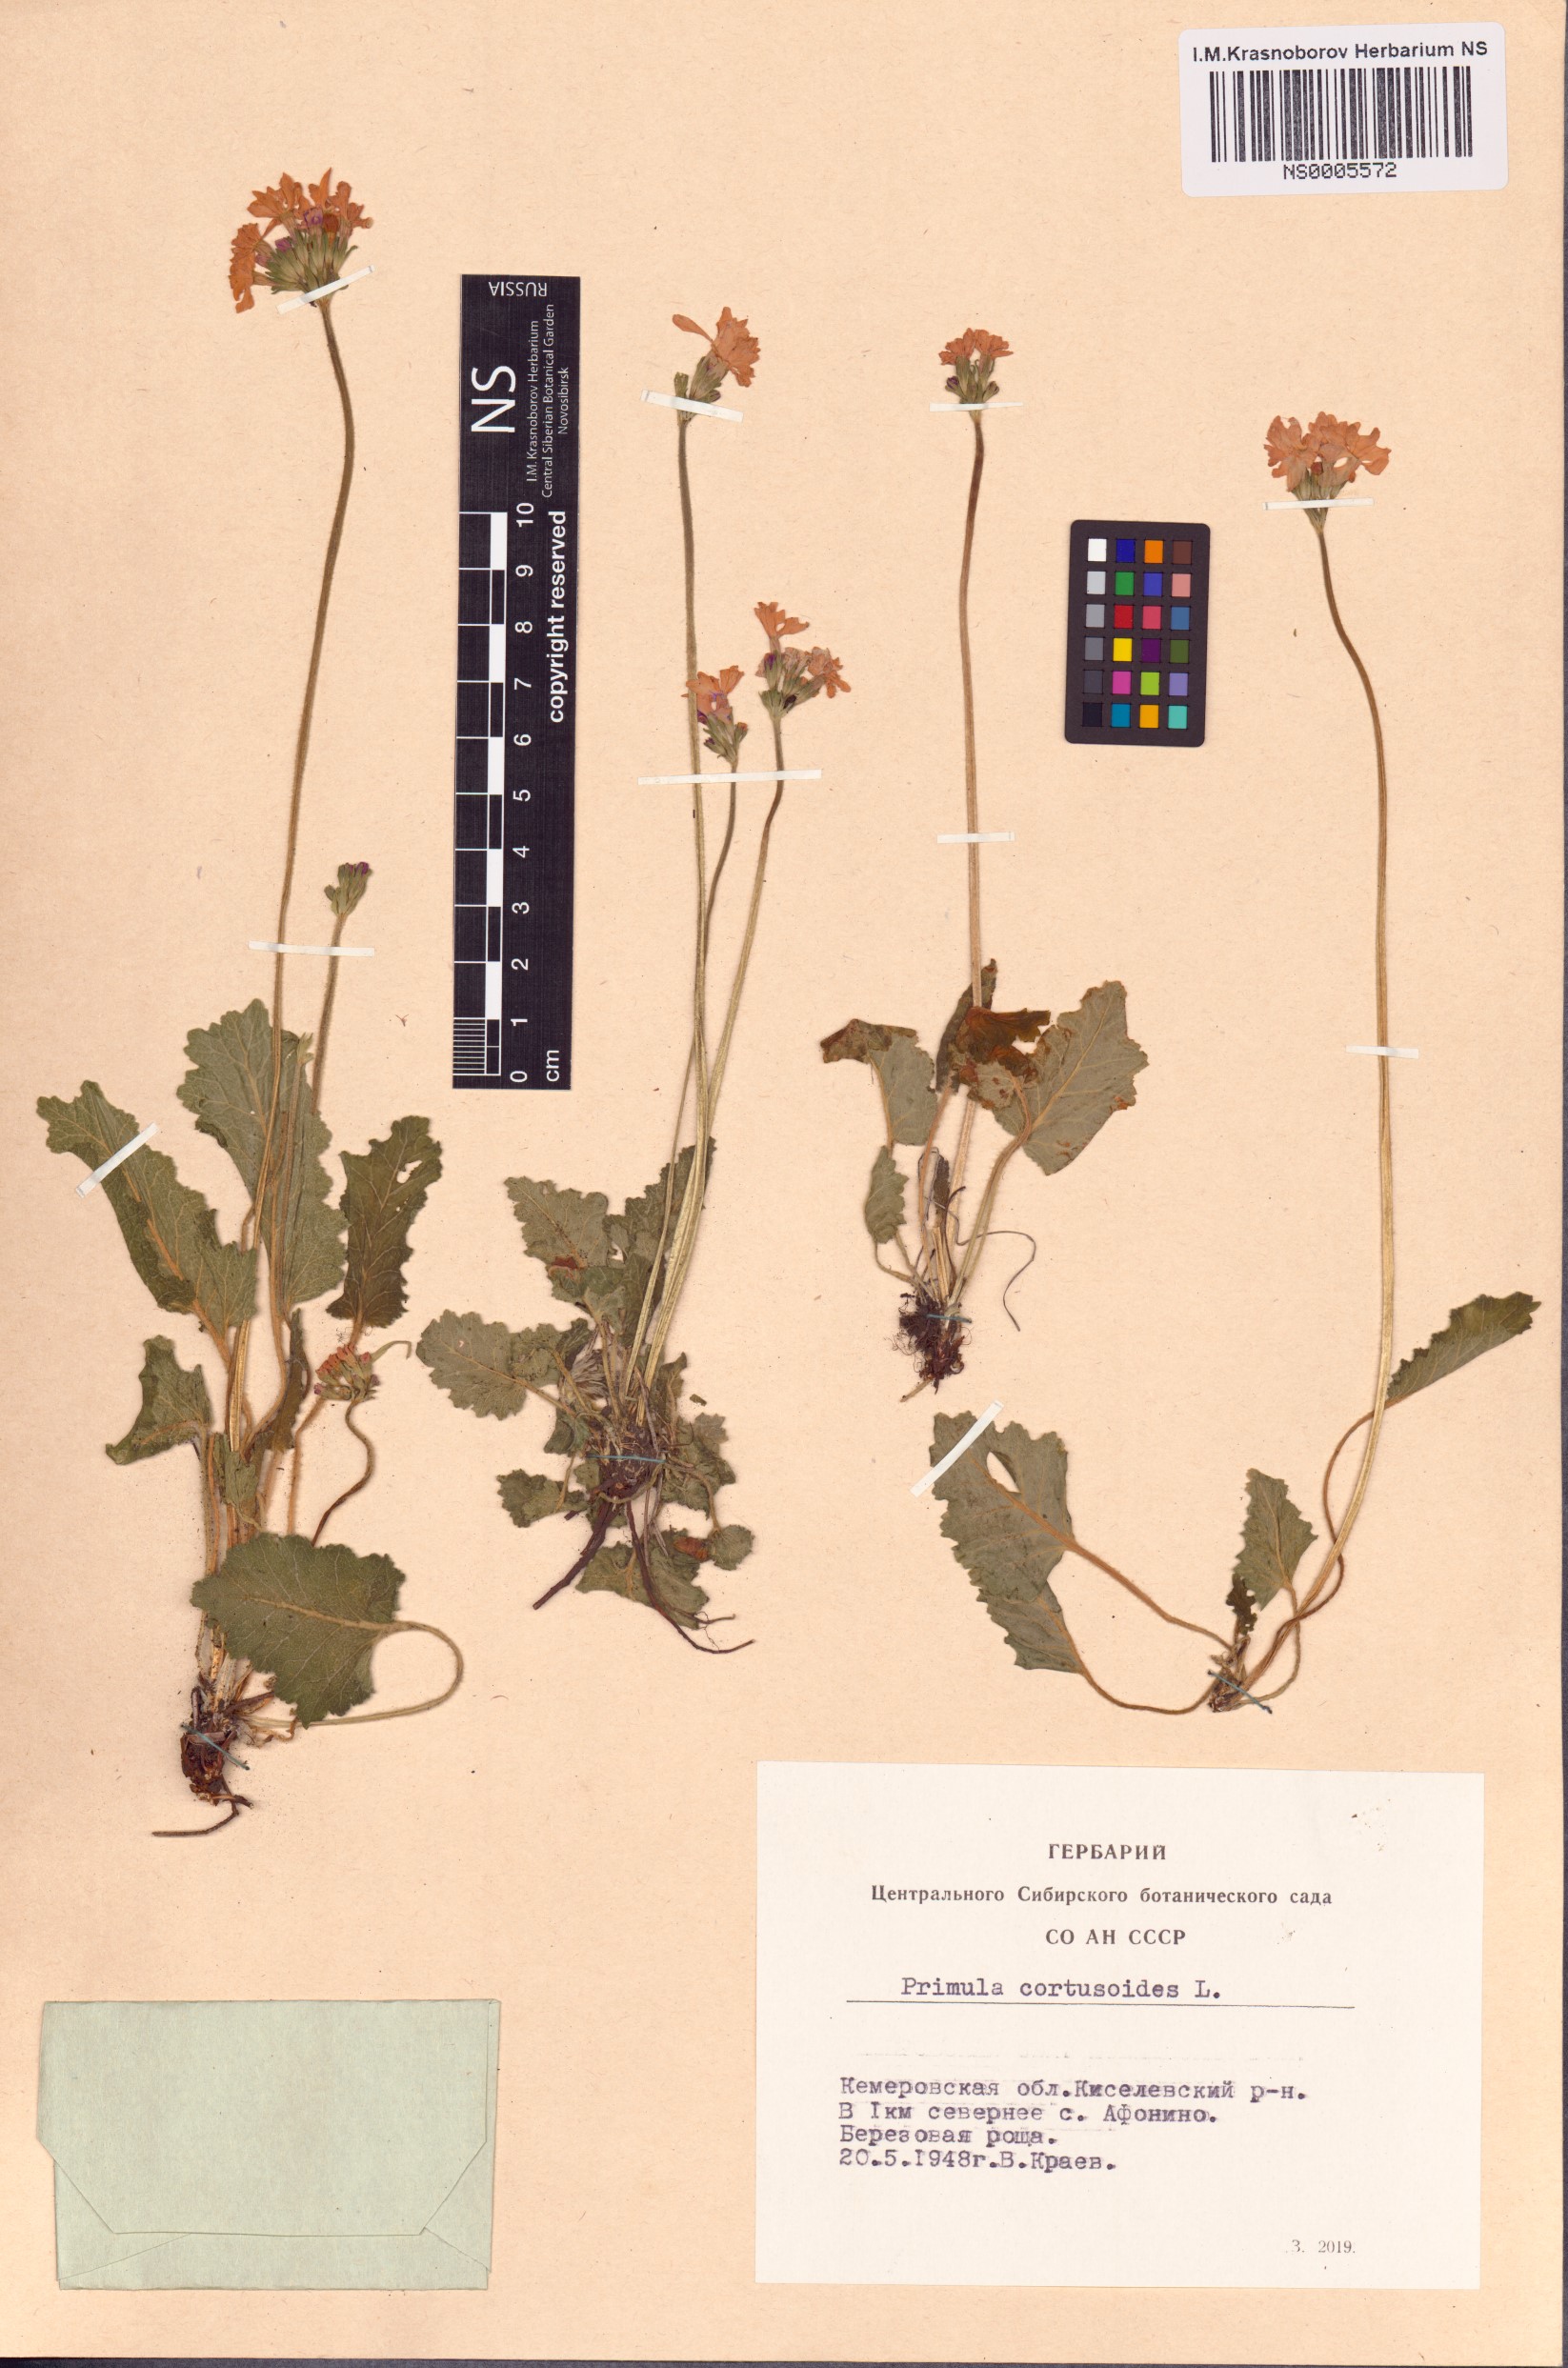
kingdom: Plantae
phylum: Tracheophyta
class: Magnoliopsida
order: Ericales
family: Primulaceae
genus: Primula
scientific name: Primula cortusoides
